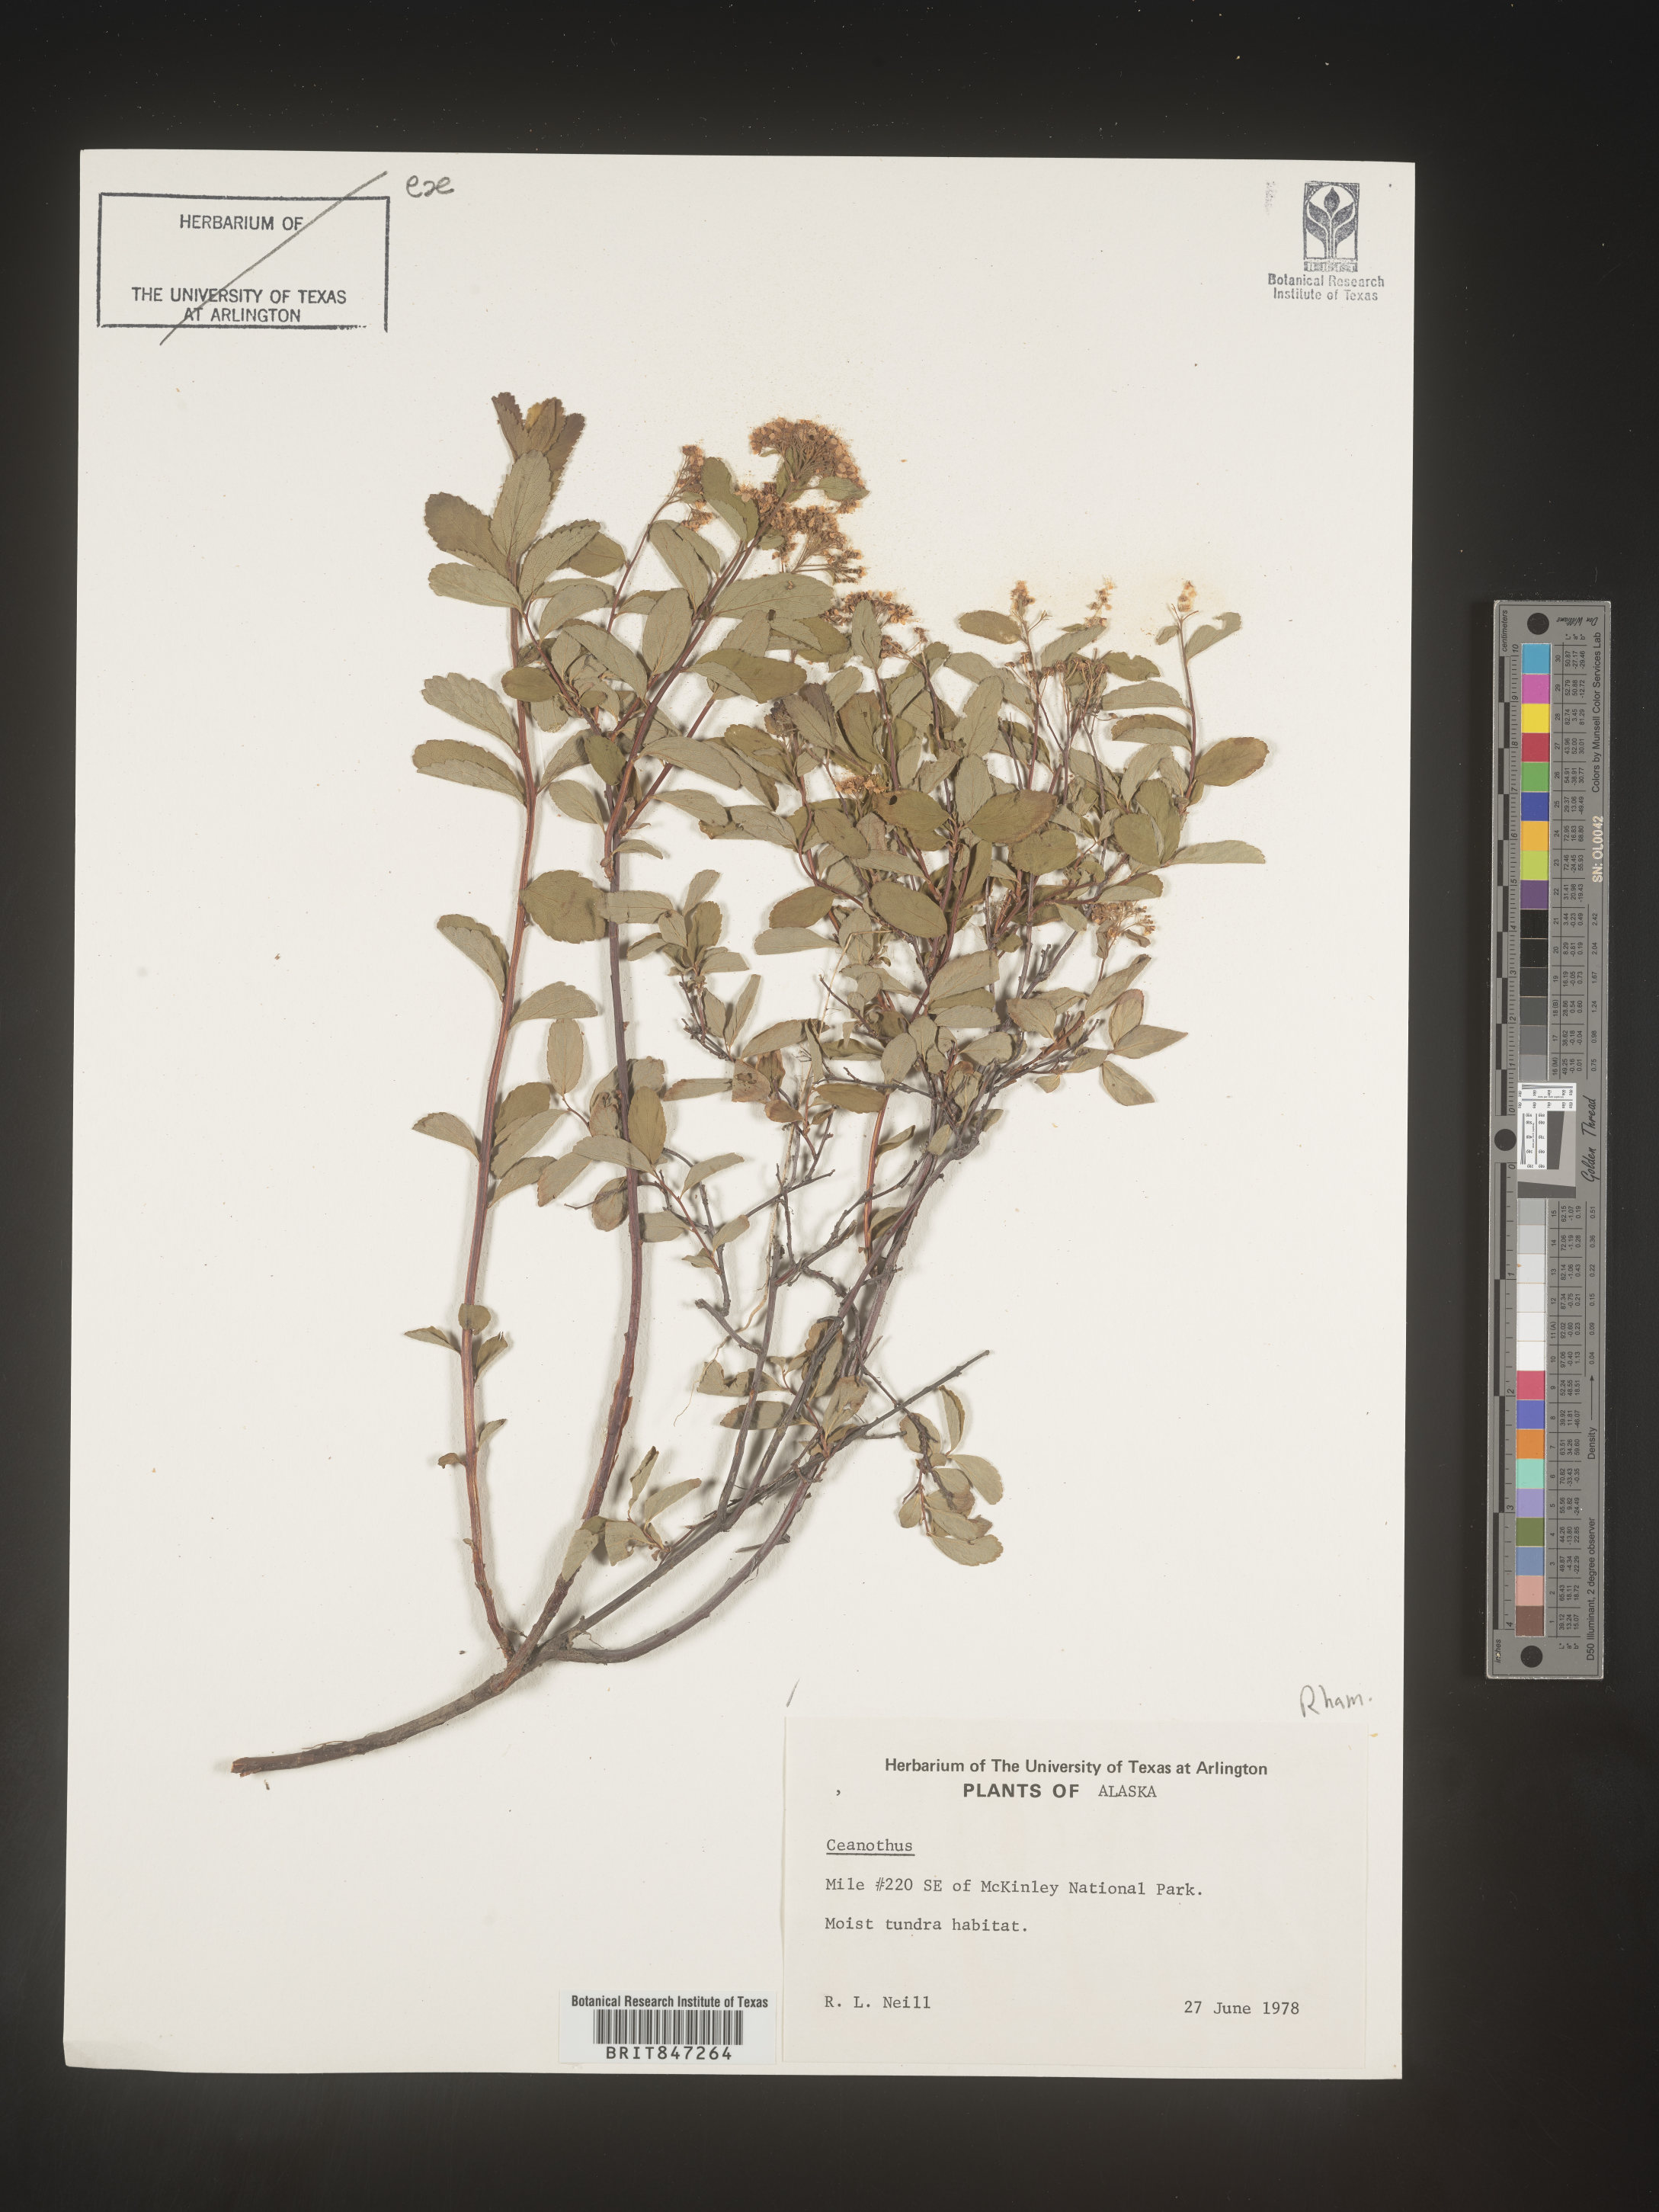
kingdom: Plantae
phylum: Tracheophyta
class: Magnoliopsida
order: Rosales
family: Rhamnaceae
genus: Ceanothus
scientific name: Ceanothus
